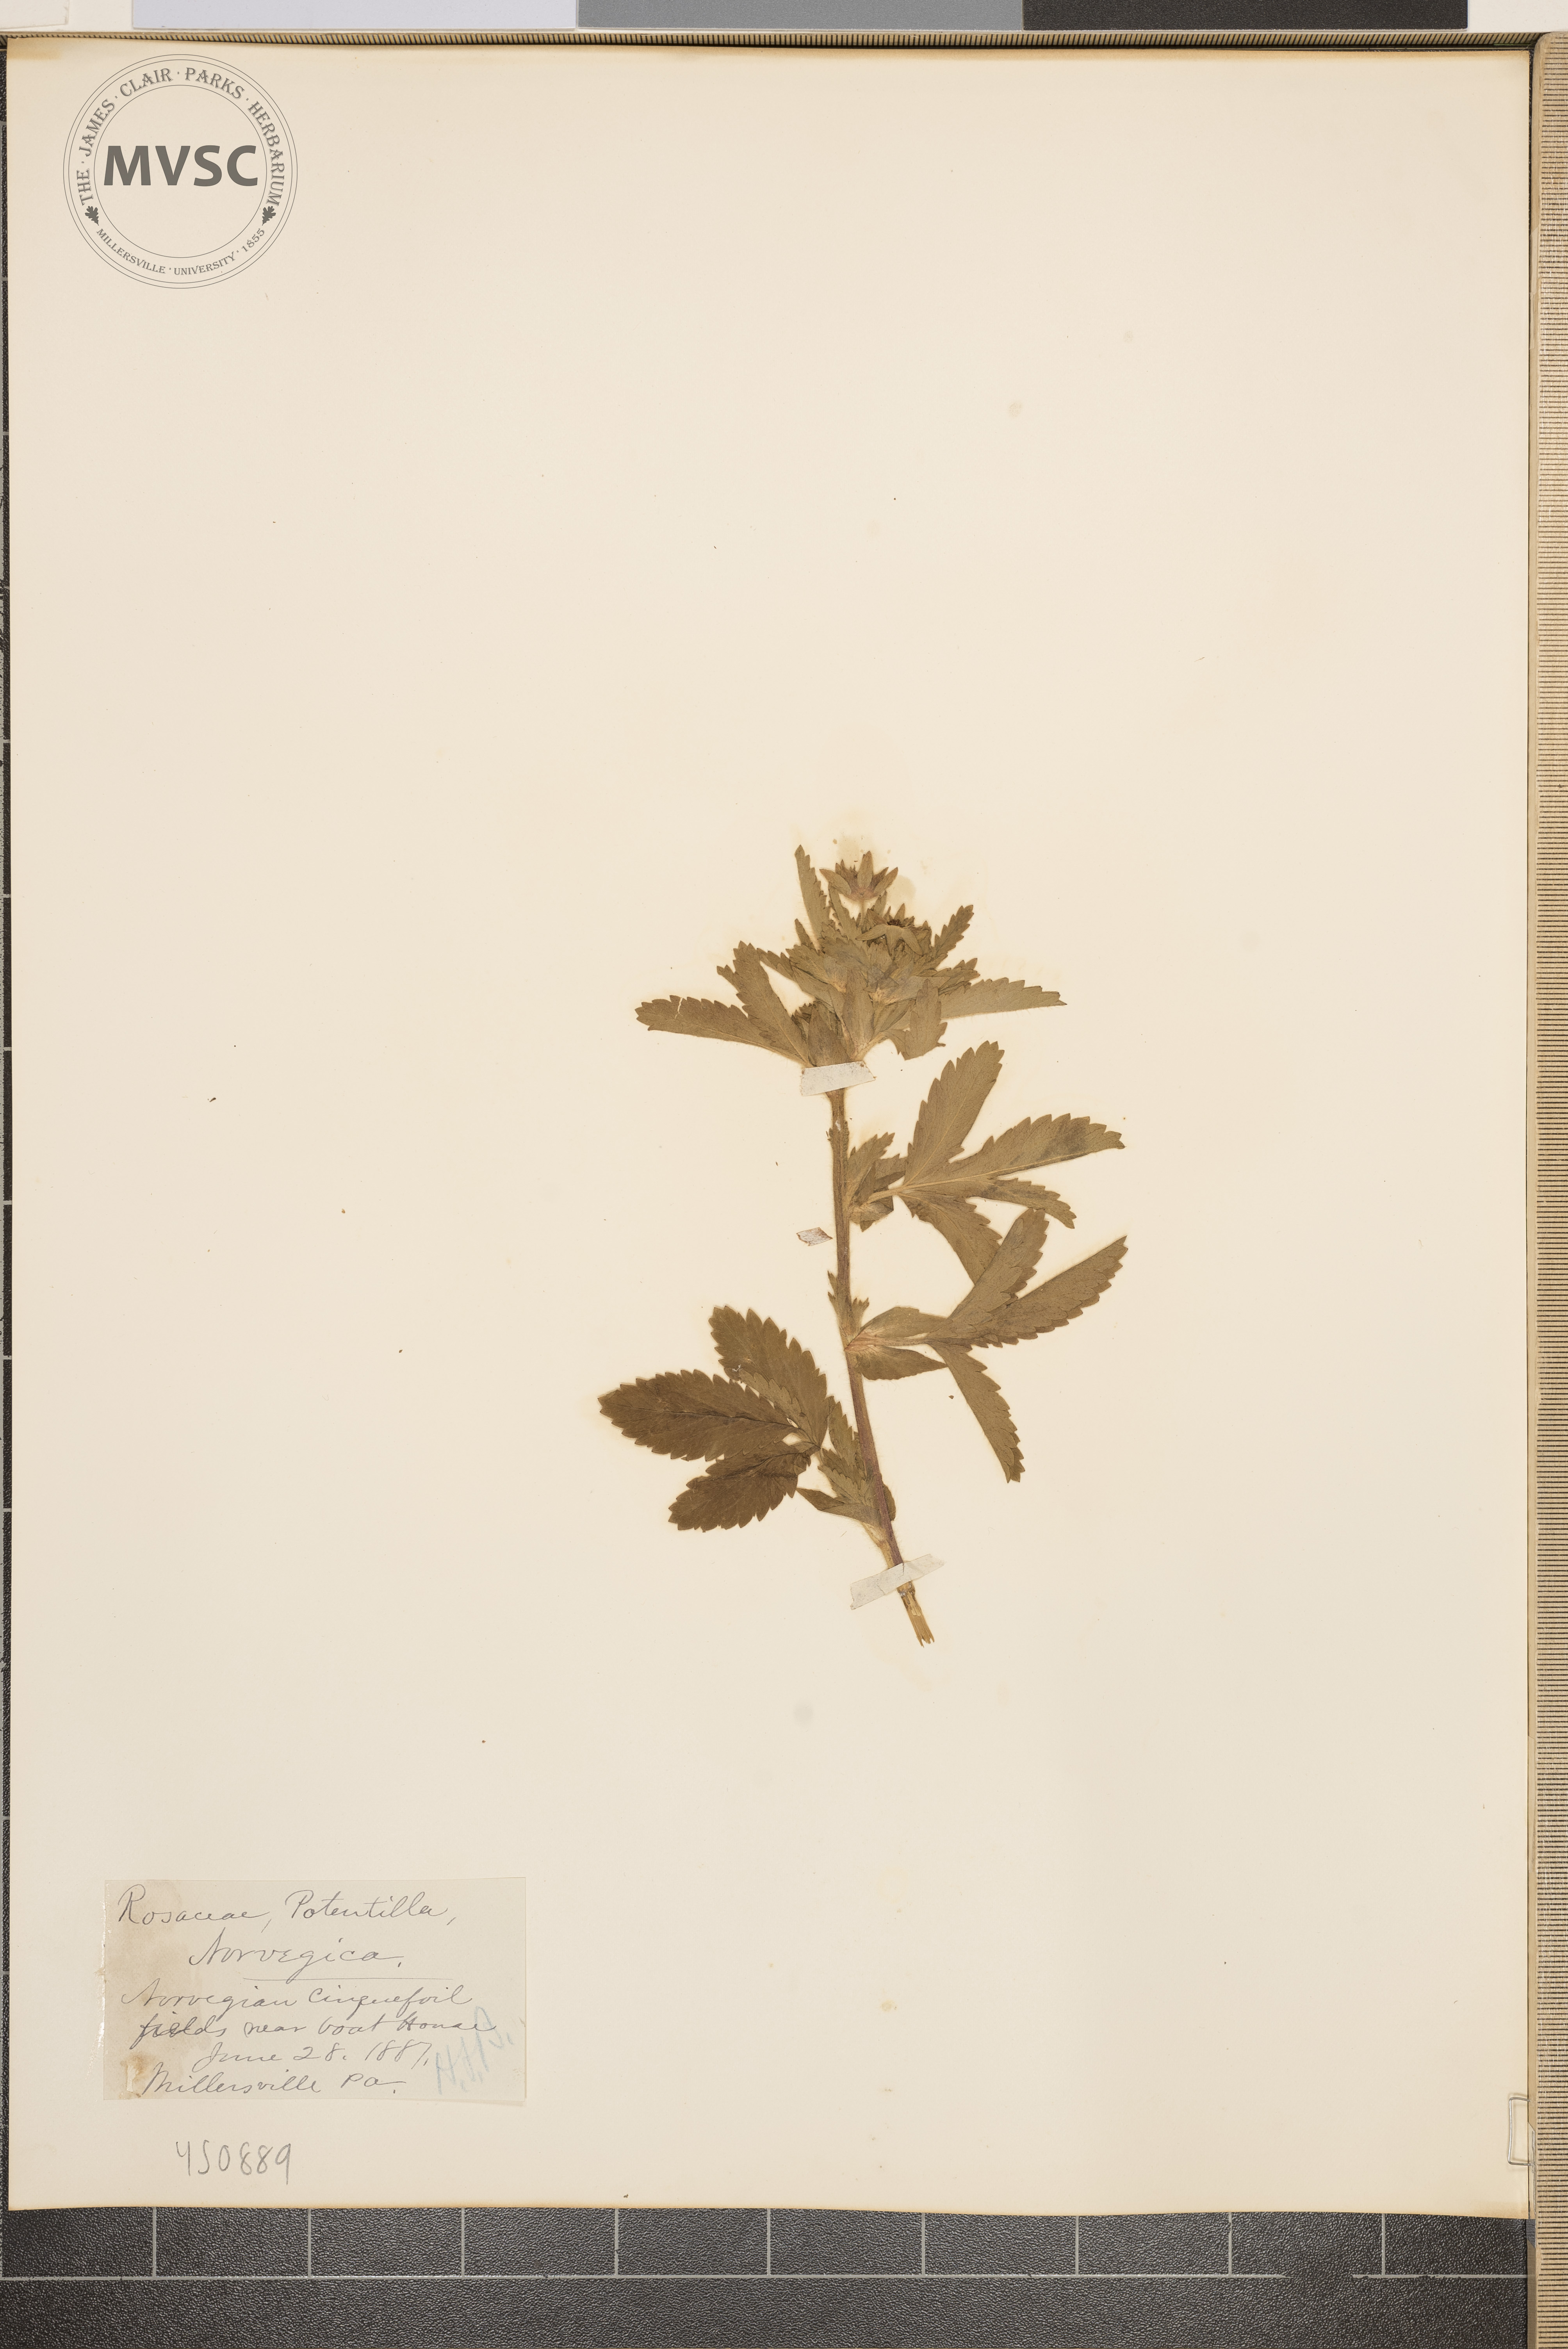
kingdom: Plantae
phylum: Tracheophyta
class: Magnoliopsida
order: Rosales
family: Rosaceae
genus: Potentilla
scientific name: Potentilla norvegica
